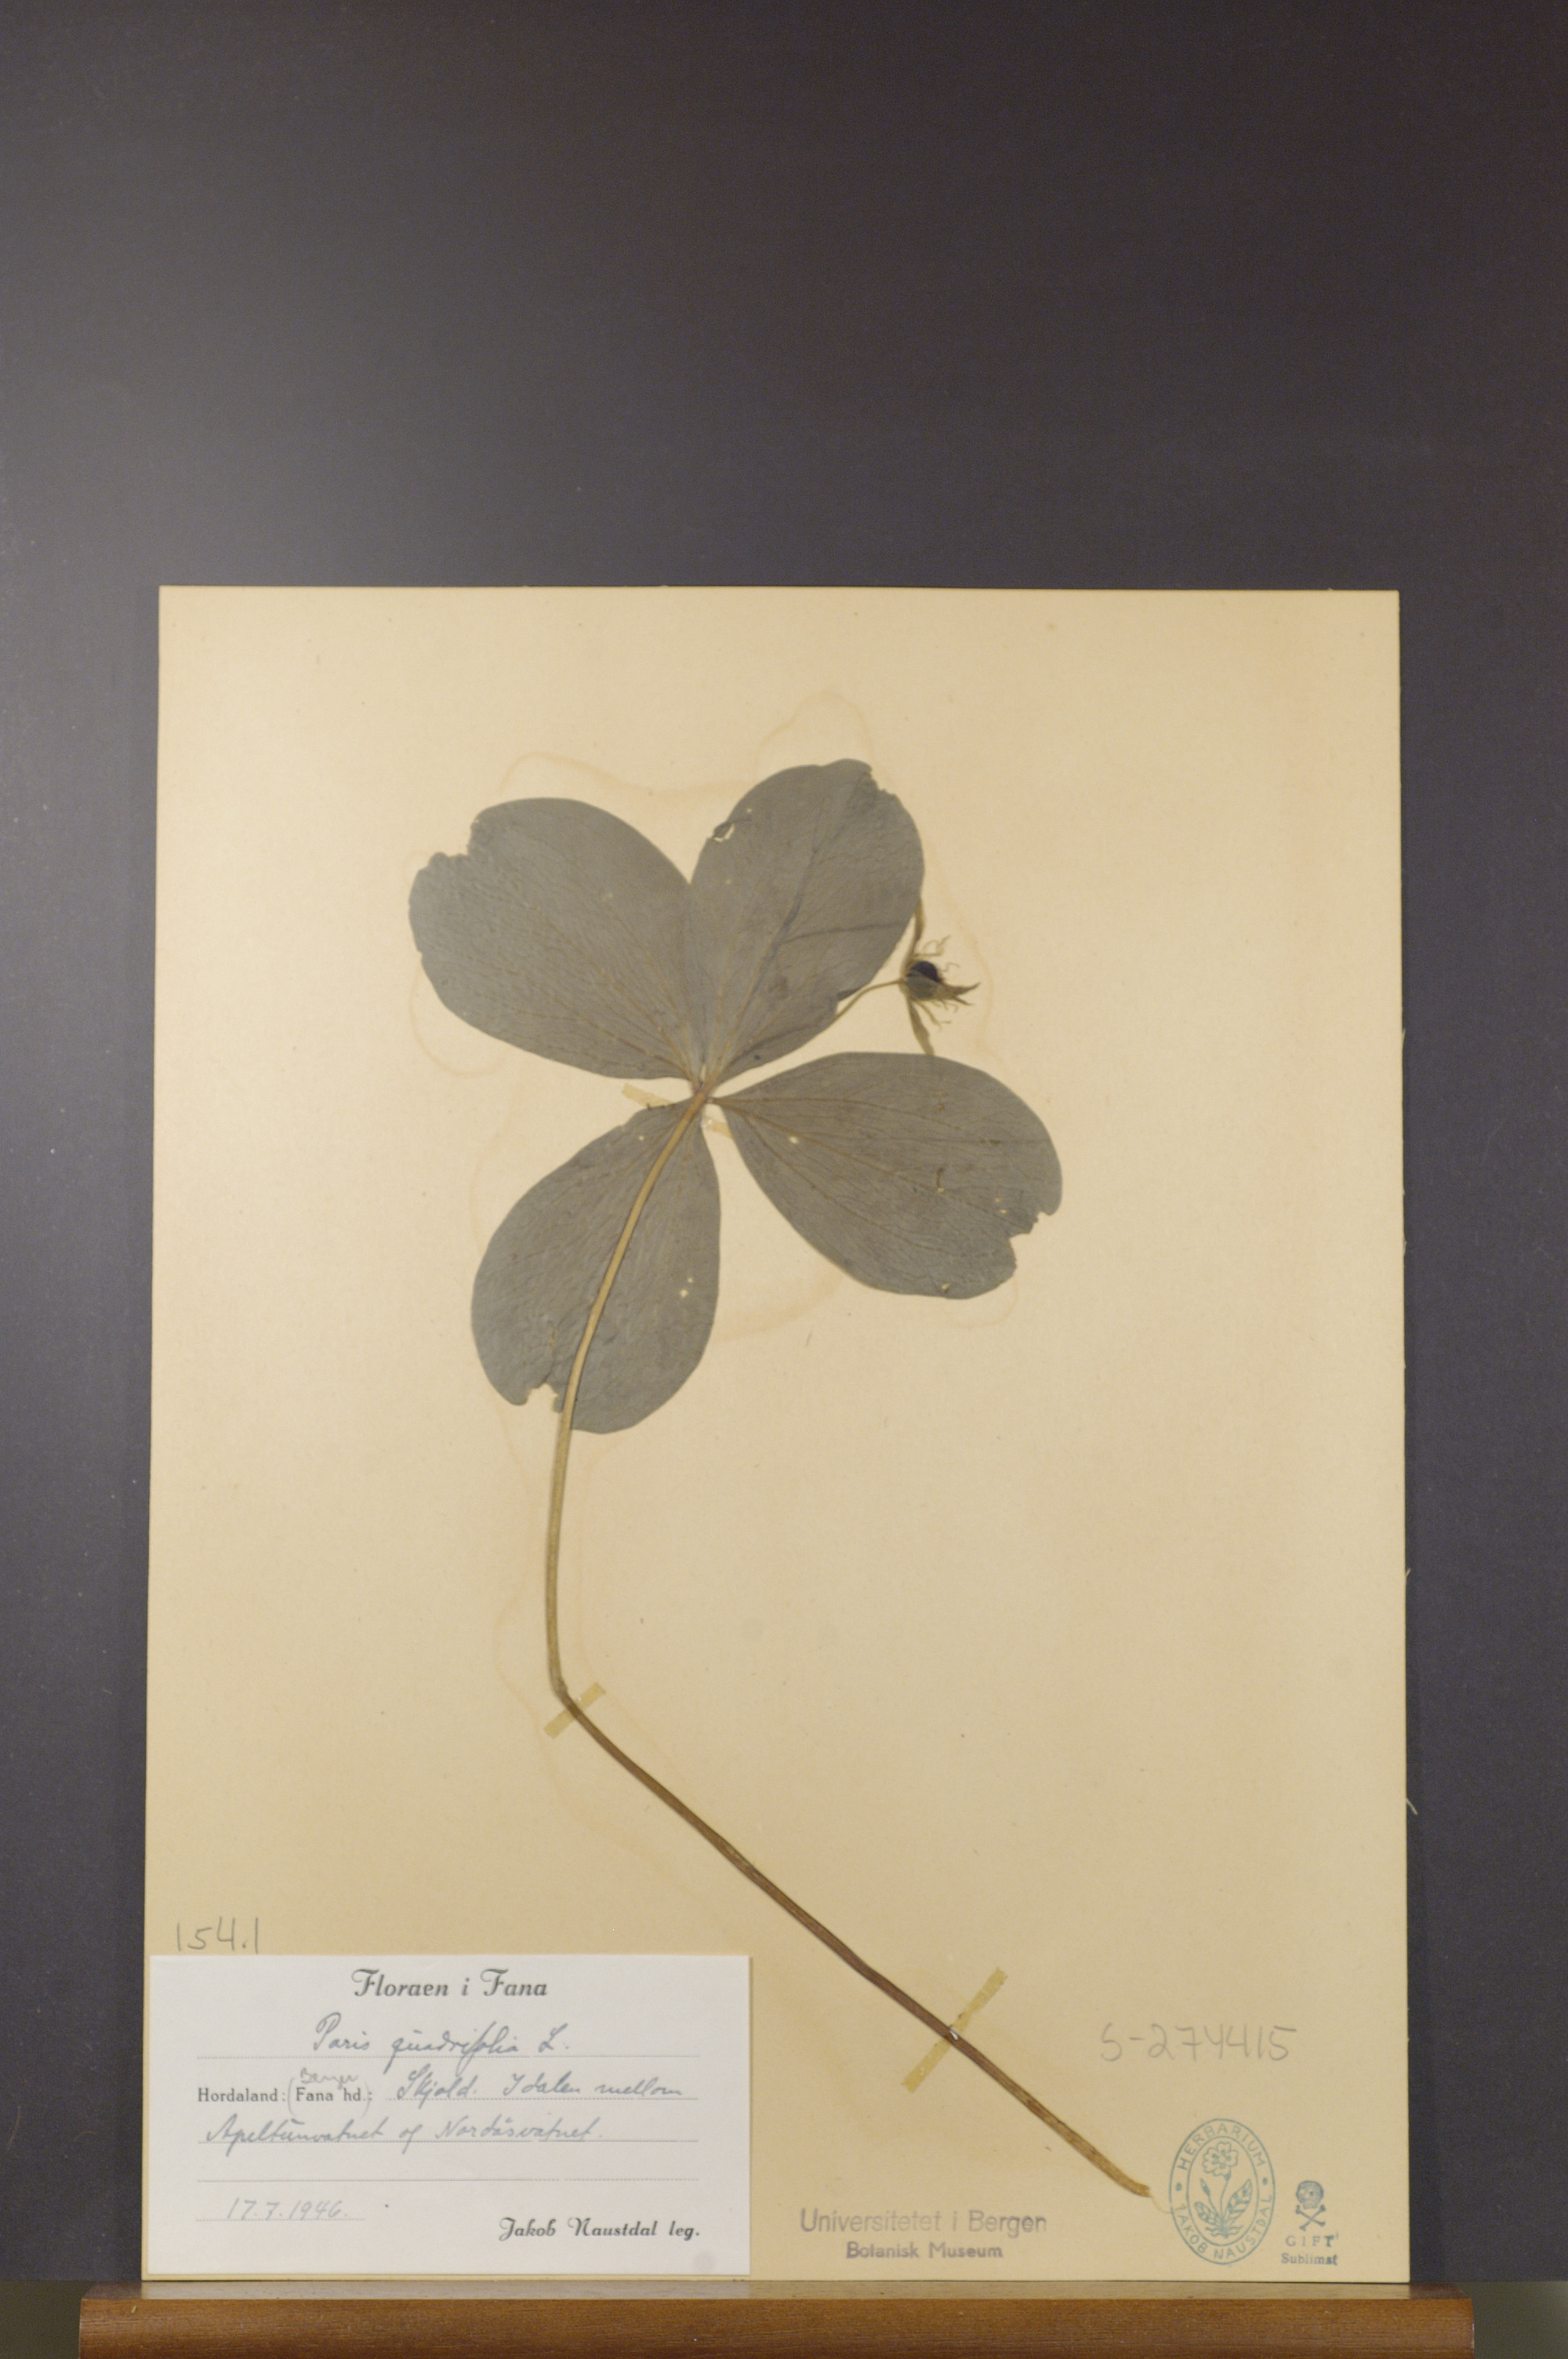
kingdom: Plantae
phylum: Tracheophyta
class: Liliopsida
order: Liliales
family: Melanthiaceae
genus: Paris
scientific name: Paris quadrifolia
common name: Herb-paris
